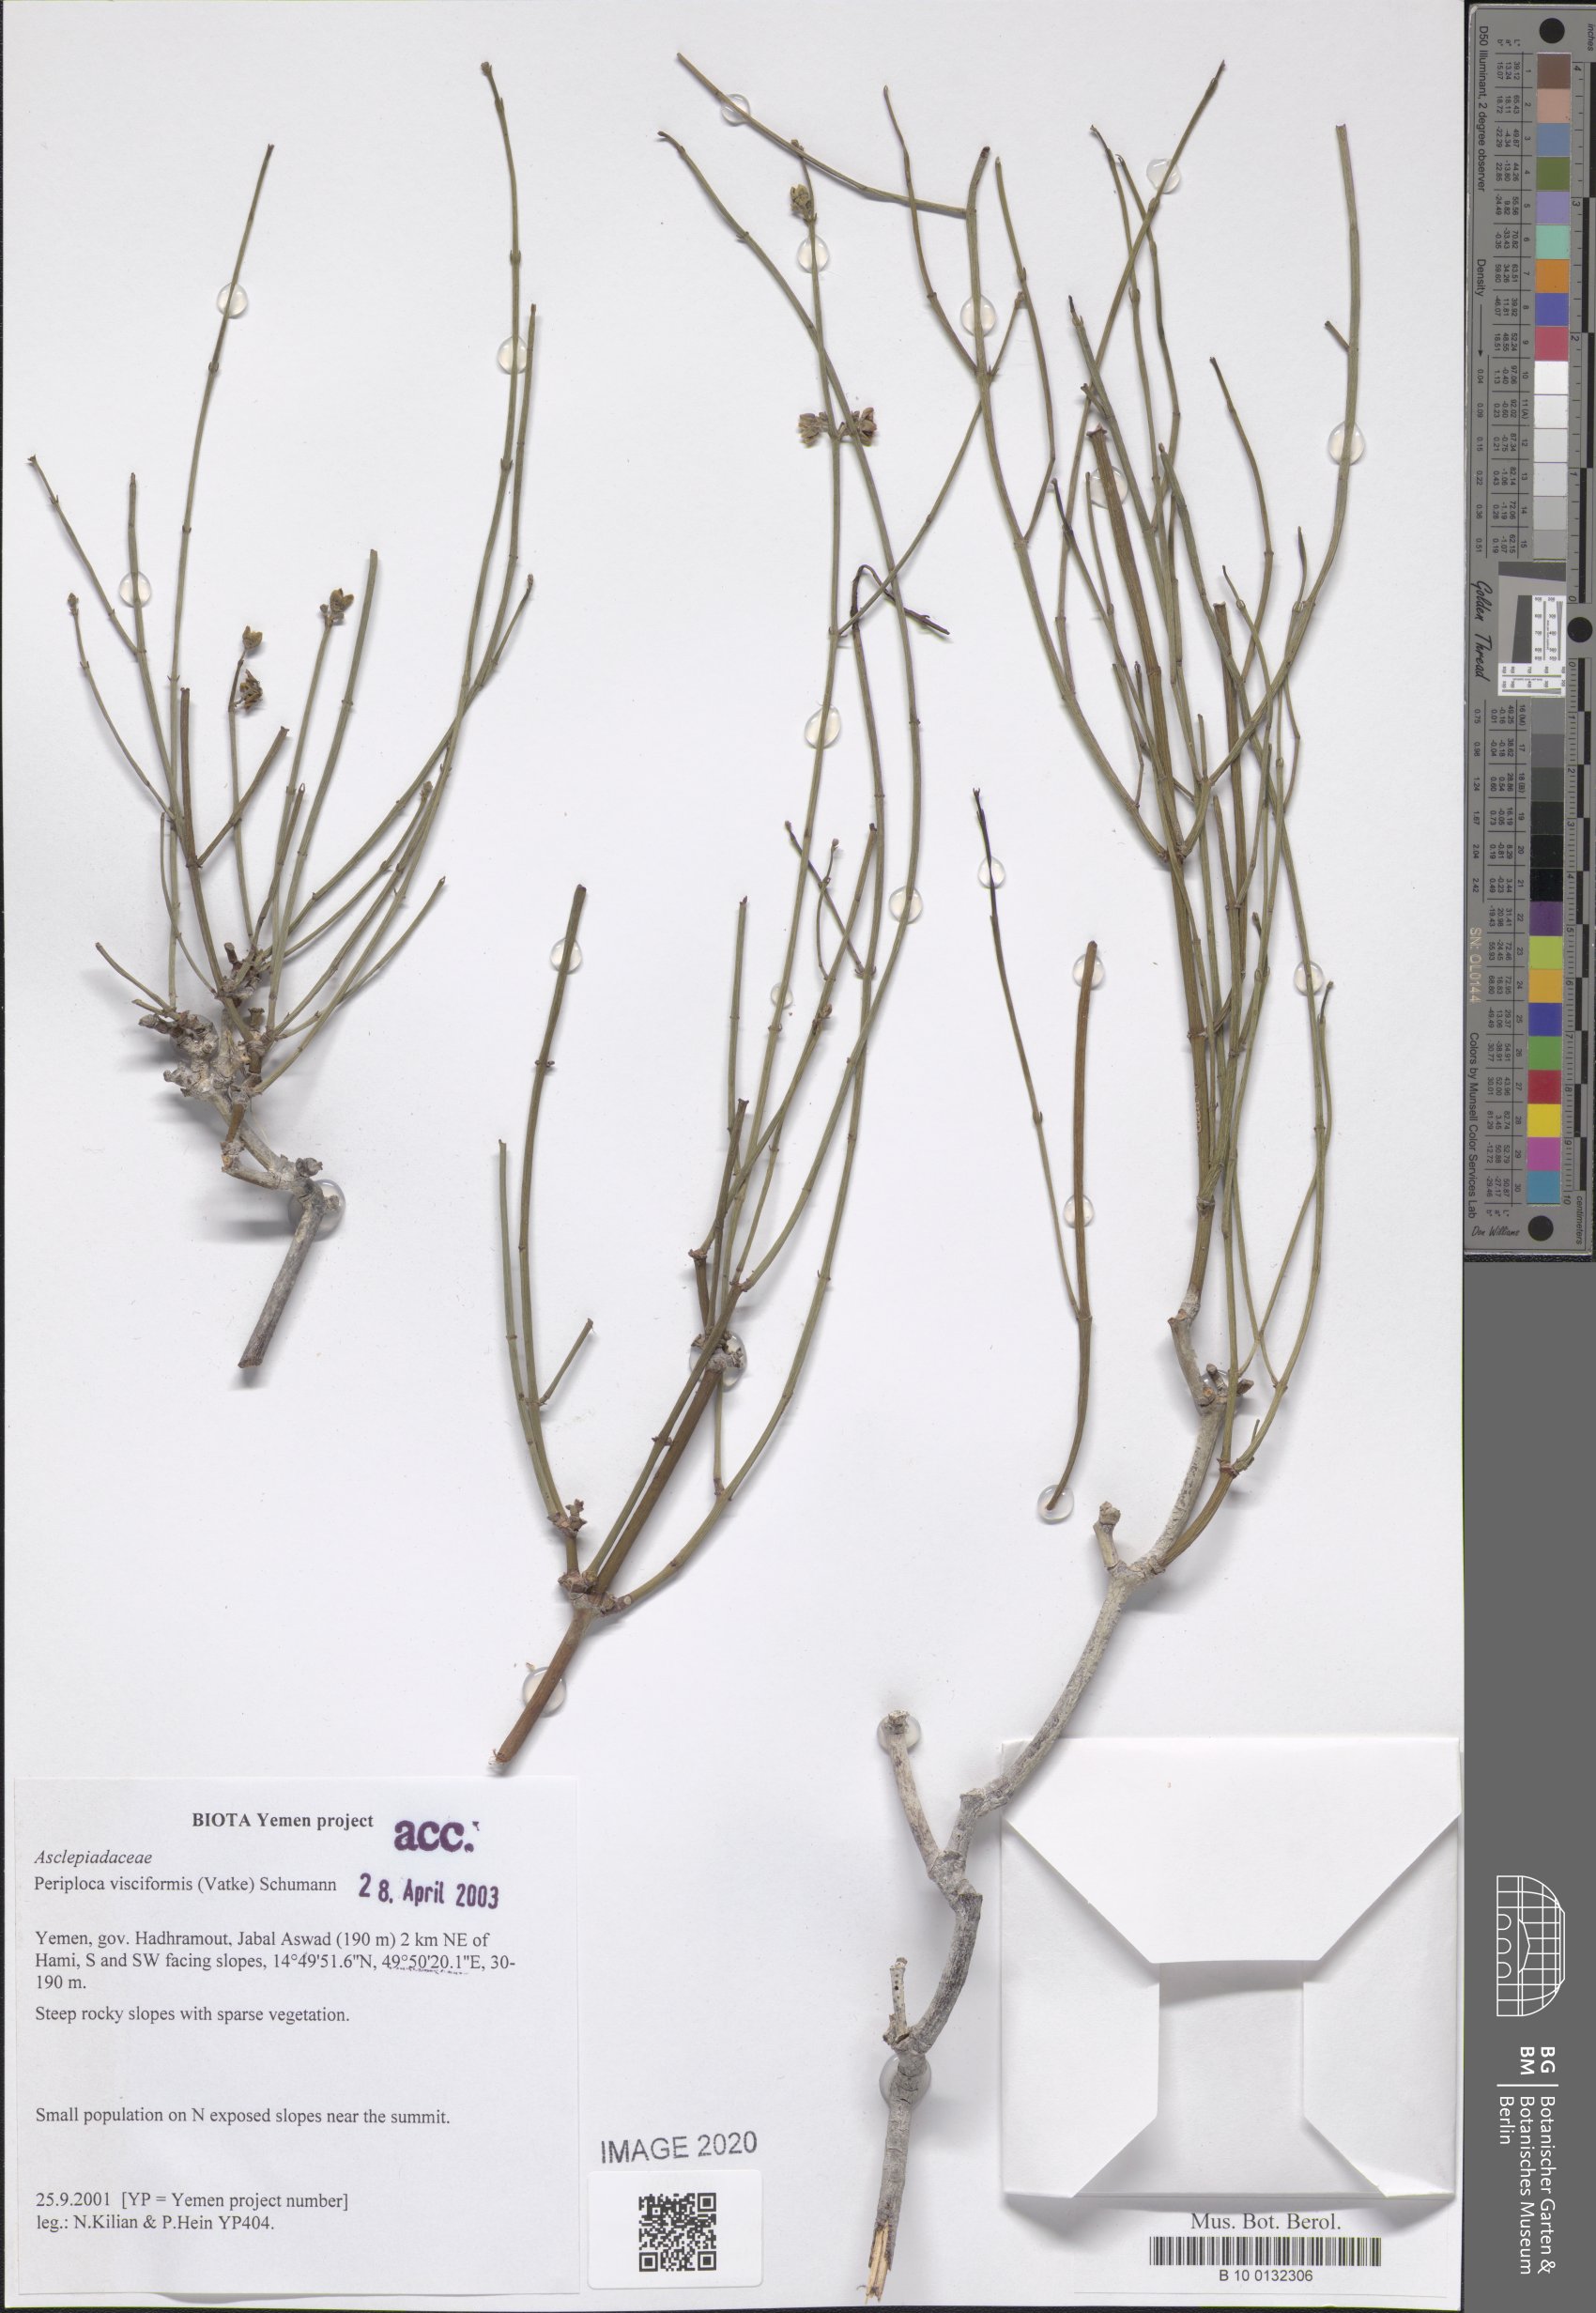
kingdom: Plantae
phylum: Tracheophyta
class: Magnoliopsida
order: Gentianales
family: Apocynaceae
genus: Periploca
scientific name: Periploca visciformis
